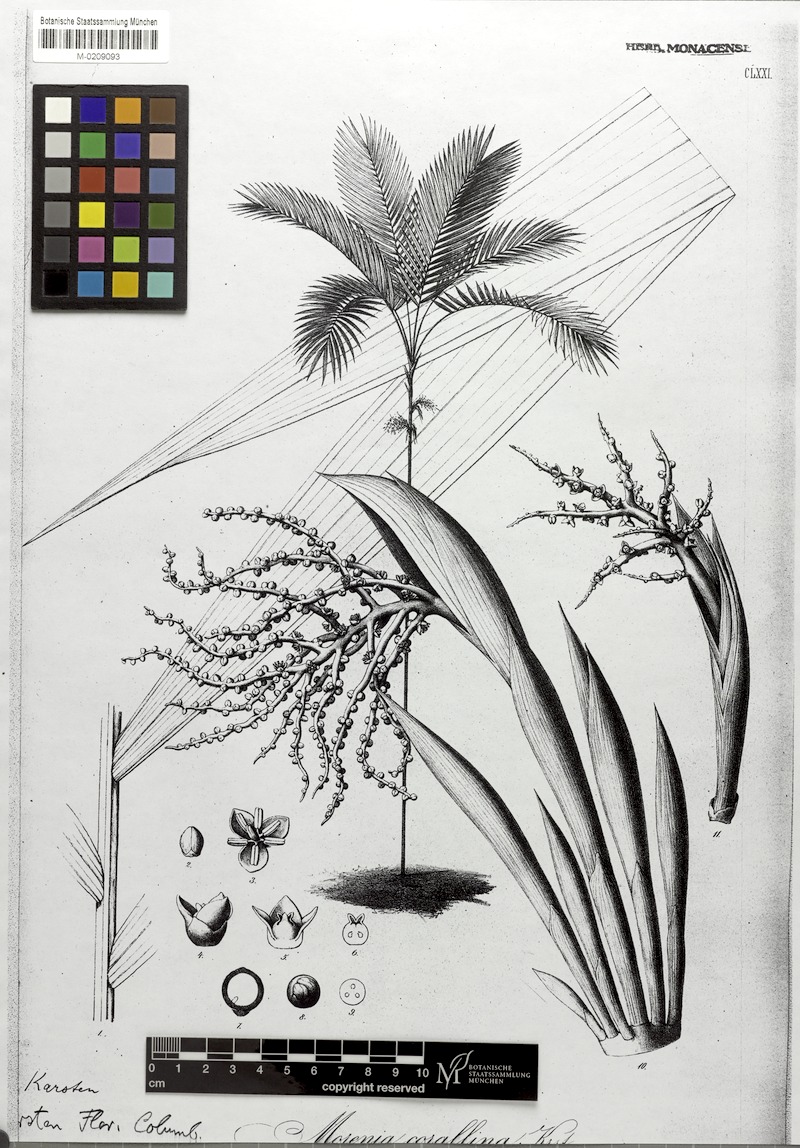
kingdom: Plantae
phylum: Tracheophyta
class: Liliopsida
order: Arecales
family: Arecaceae
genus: Chamaedorea
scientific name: Chamaedorea linearis
